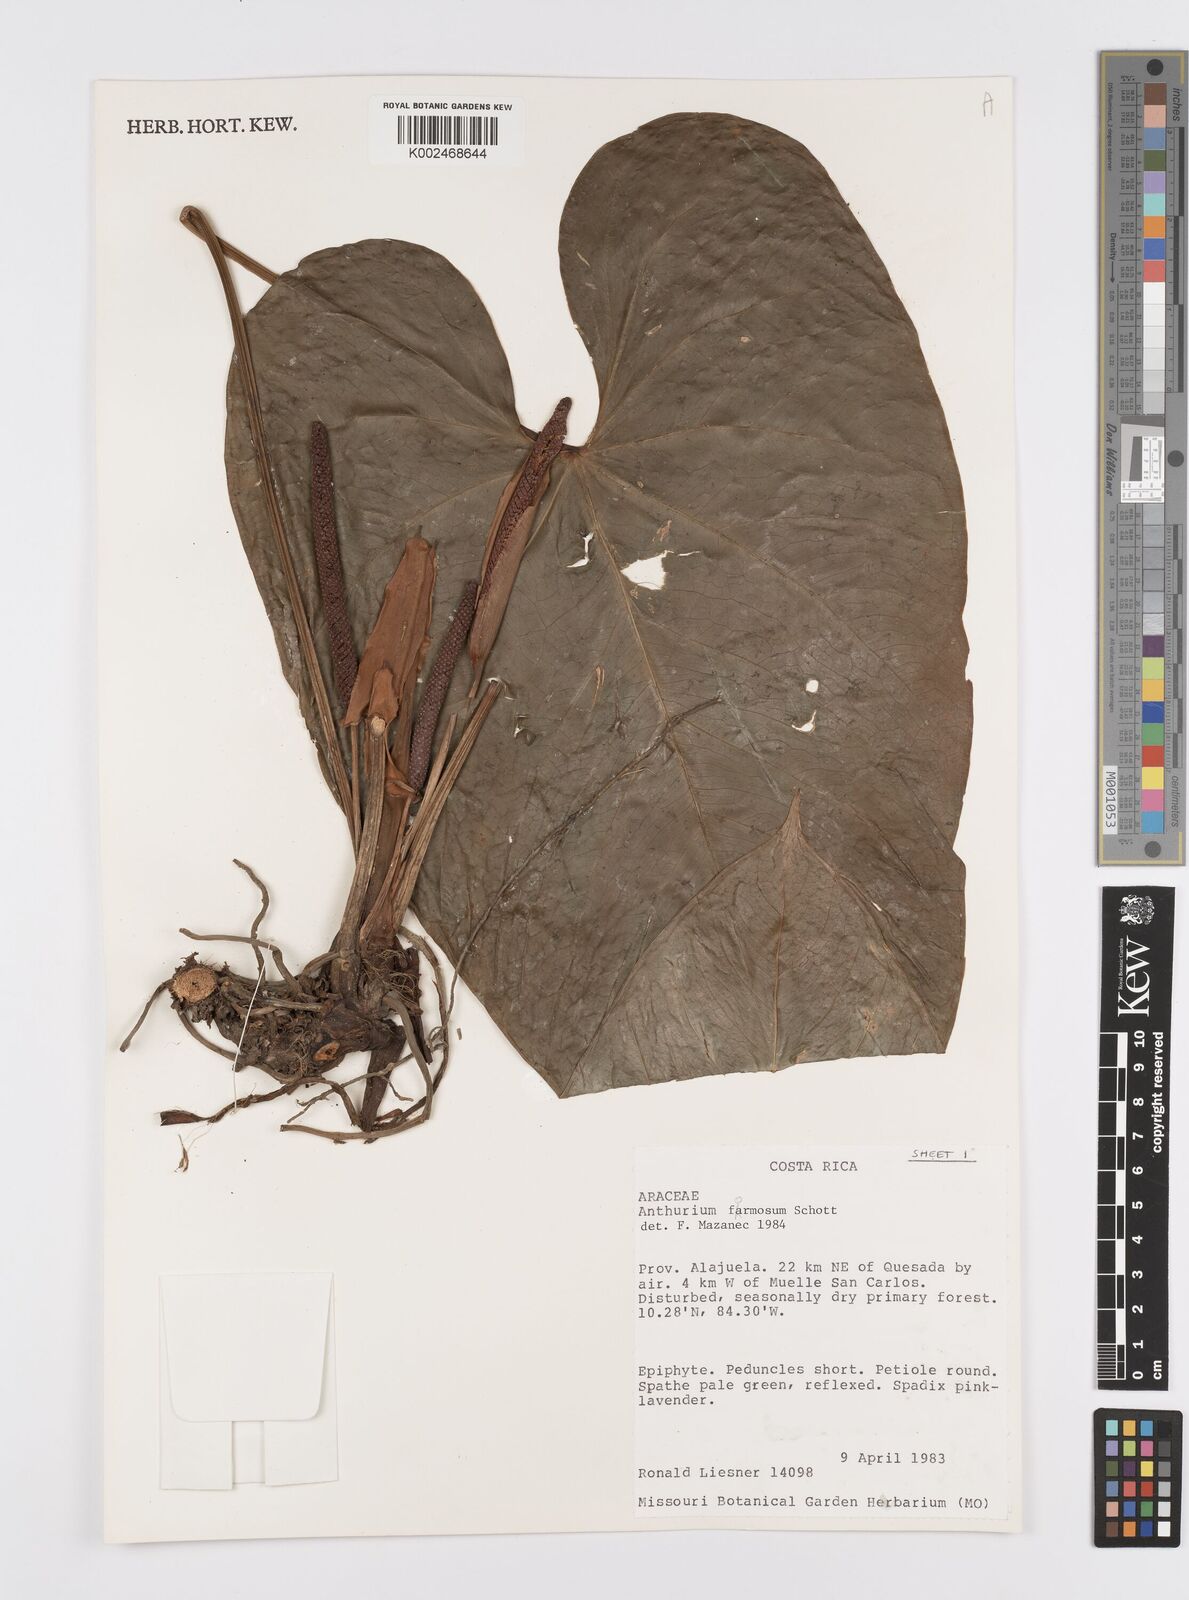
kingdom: Plantae
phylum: Tracheophyta
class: Liliopsida
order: Alismatales
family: Araceae
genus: Anthurium
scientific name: Anthurium formosum
